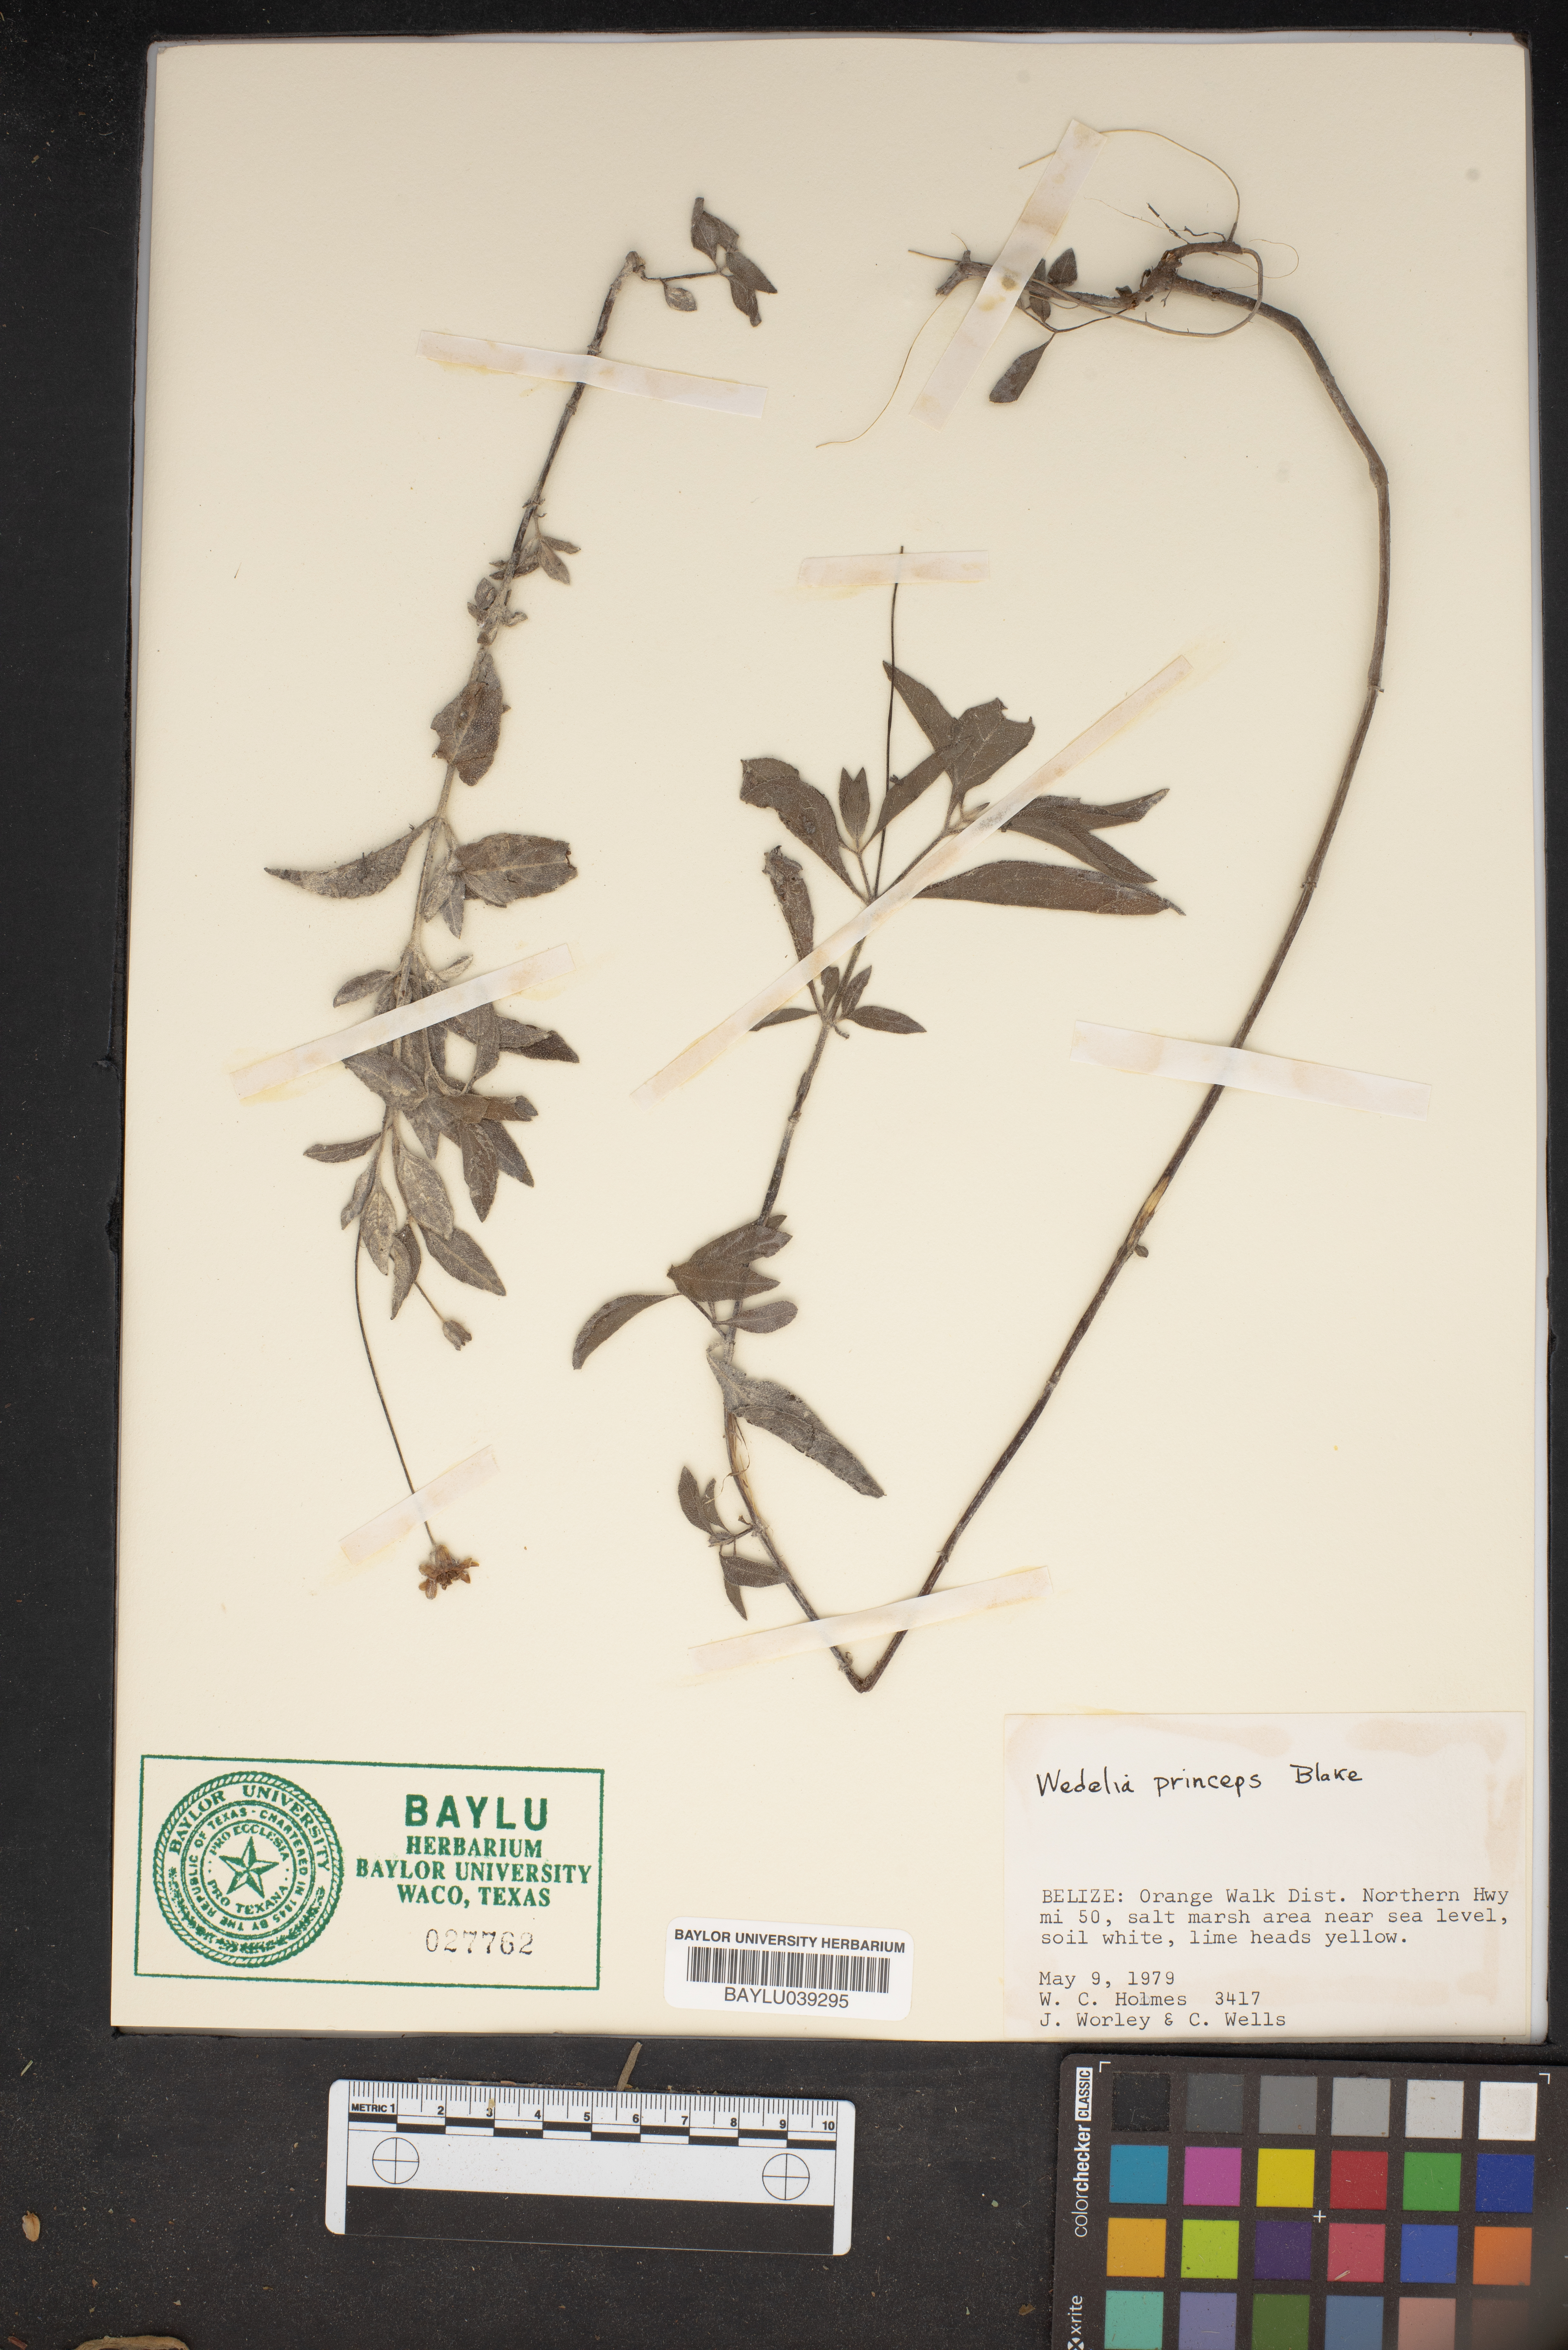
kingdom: Plantae
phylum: Tracheophyta
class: Magnoliopsida
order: Asterales
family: Asteraceae
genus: Wedelia
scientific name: Wedelia
